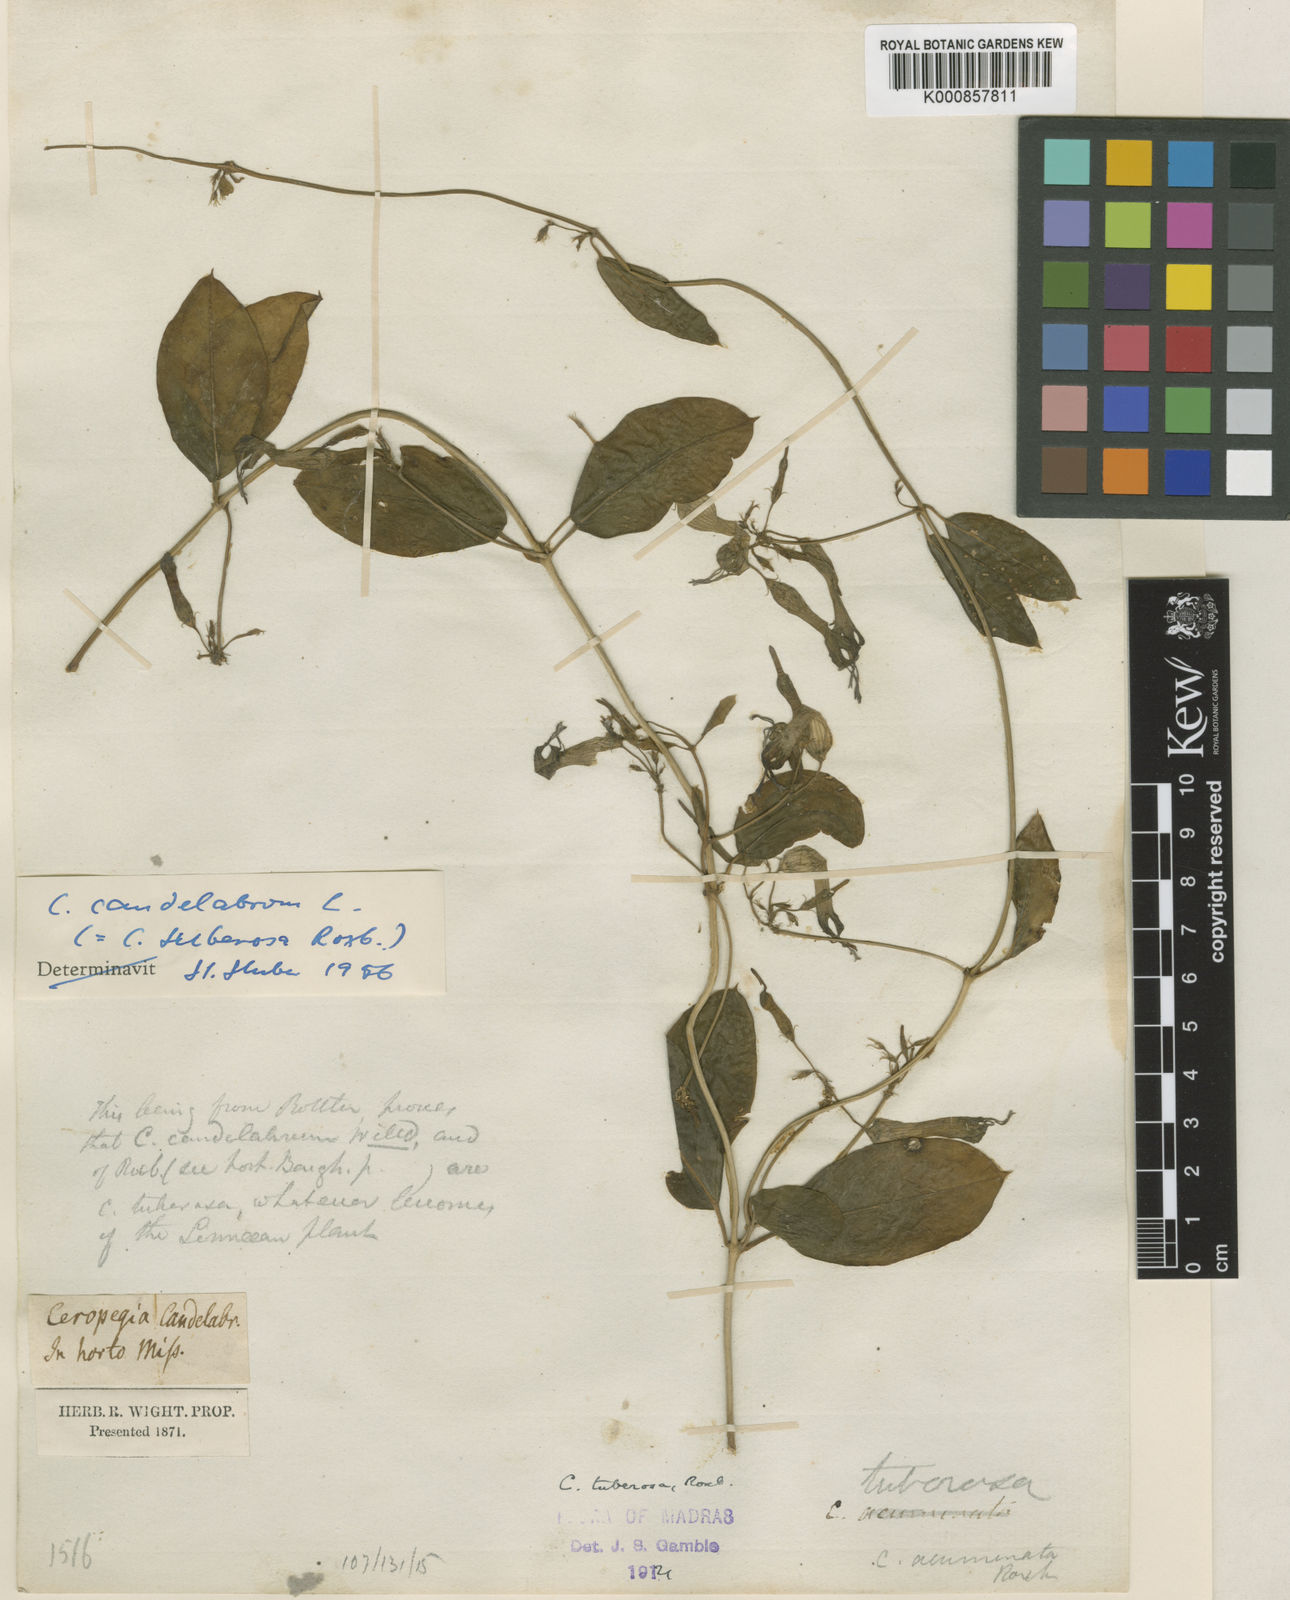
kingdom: Plantae
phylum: Tracheophyta
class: Magnoliopsida
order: Gentianales
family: Apocynaceae
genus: Ceropegia
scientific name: Ceropegia candelabrum
